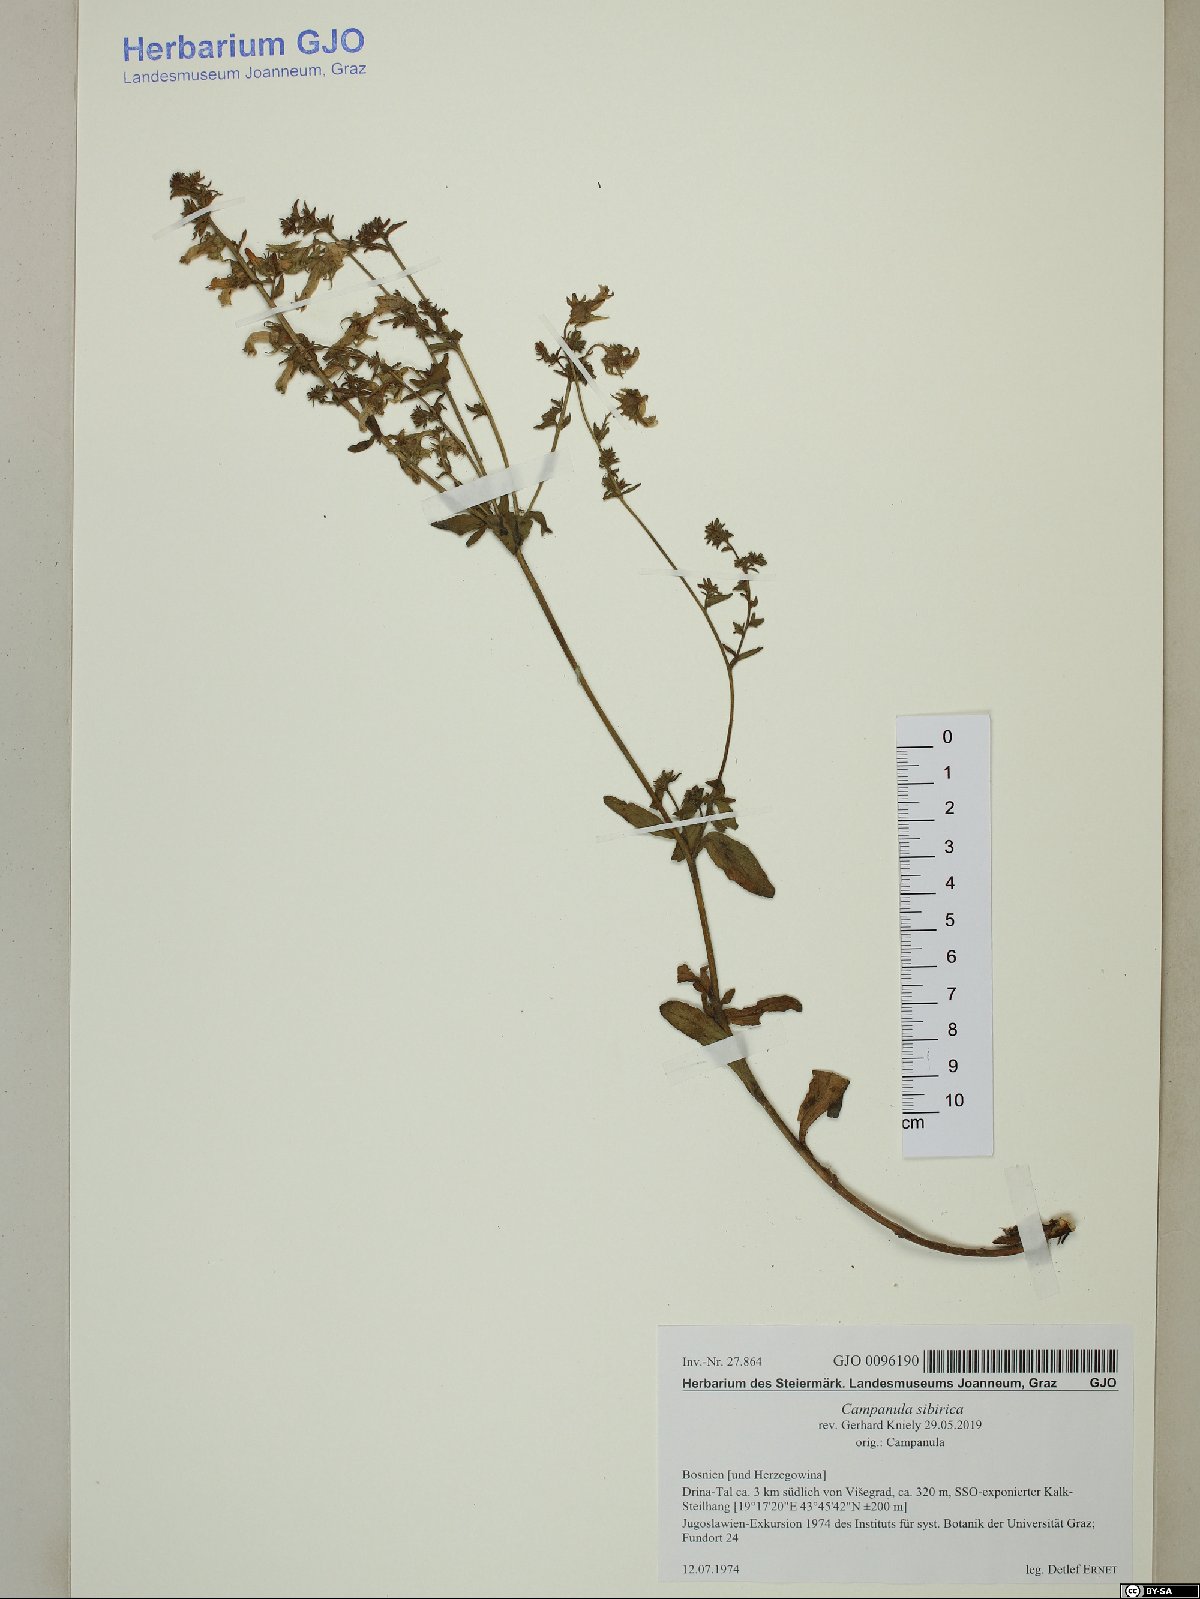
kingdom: Plantae
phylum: Tracheophyta
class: Magnoliopsida
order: Asterales
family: Campanulaceae
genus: Campanula
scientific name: Campanula sibirica
